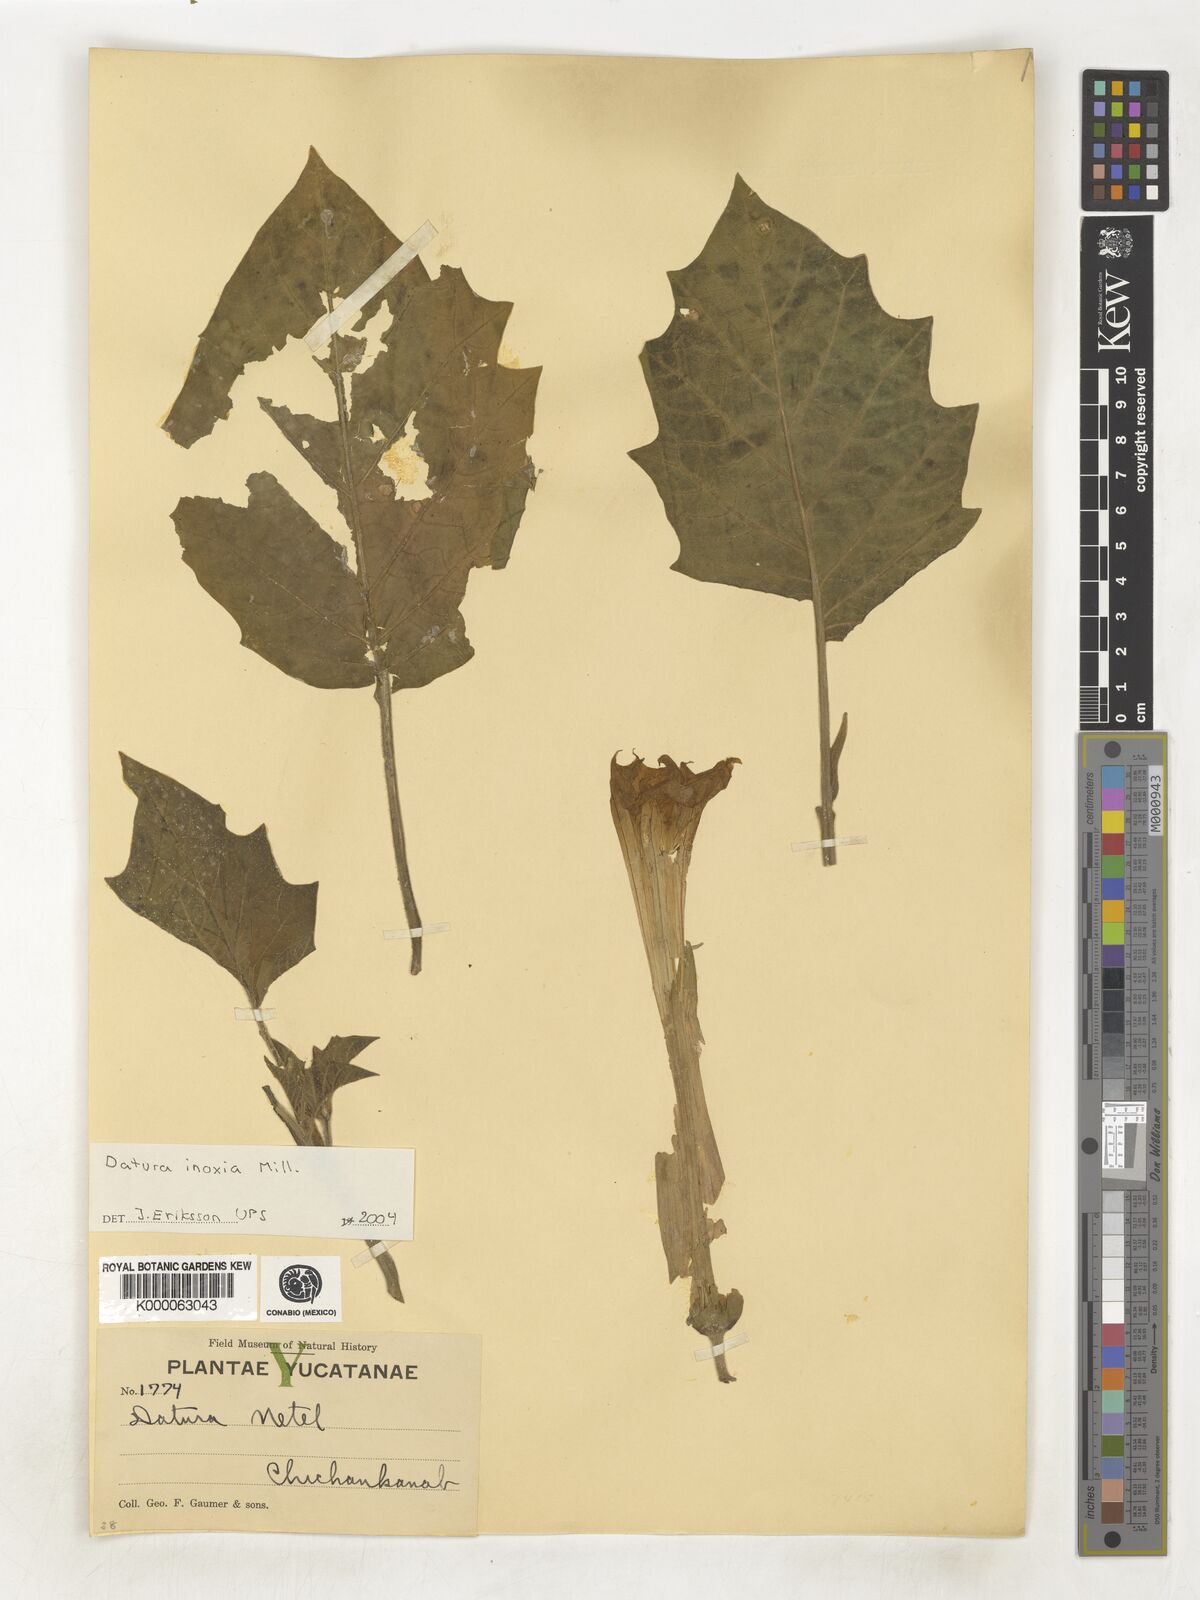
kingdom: Plantae
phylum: Tracheophyta
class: Magnoliopsida
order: Solanales
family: Solanaceae
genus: Datura
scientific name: Datura metel
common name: Jimsonweed
